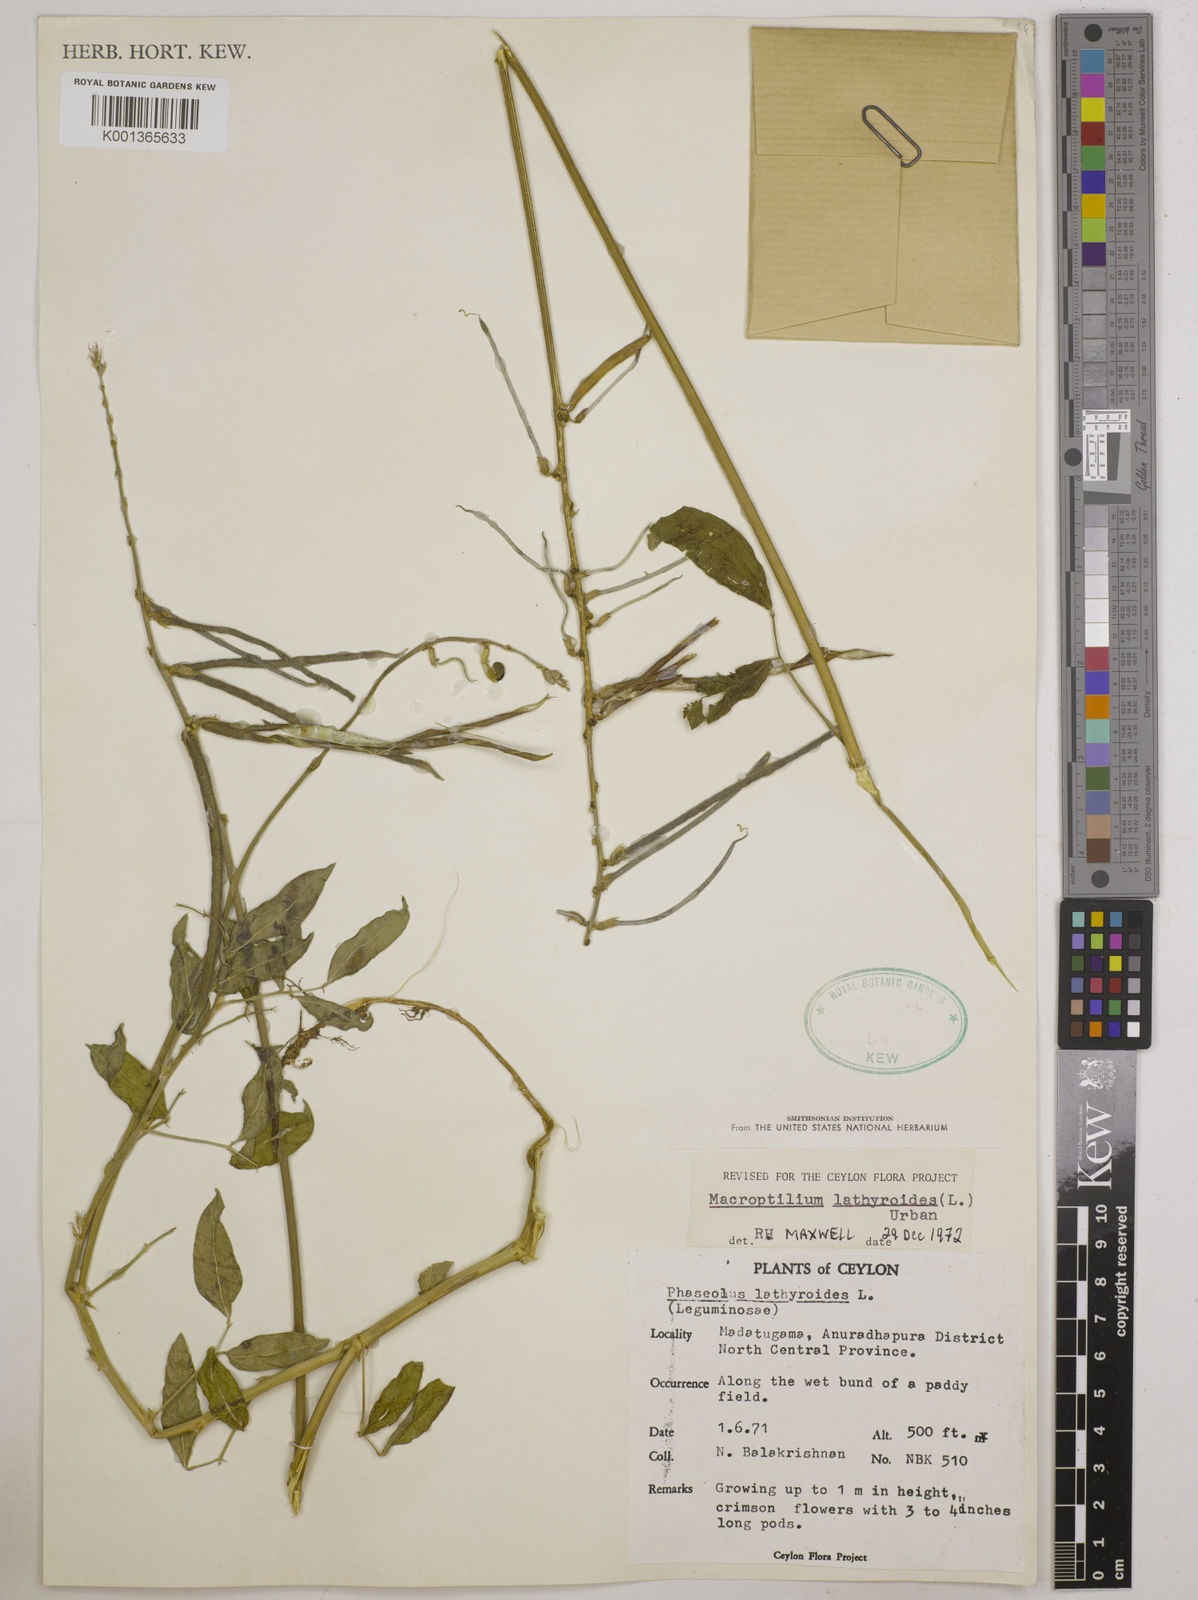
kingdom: Plantae
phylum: Tracheophyta
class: Magnoliopsida
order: Fabales
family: Fabaceae
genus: Macroptilium
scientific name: Macroptilium lathyroides
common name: Wild bushbean
